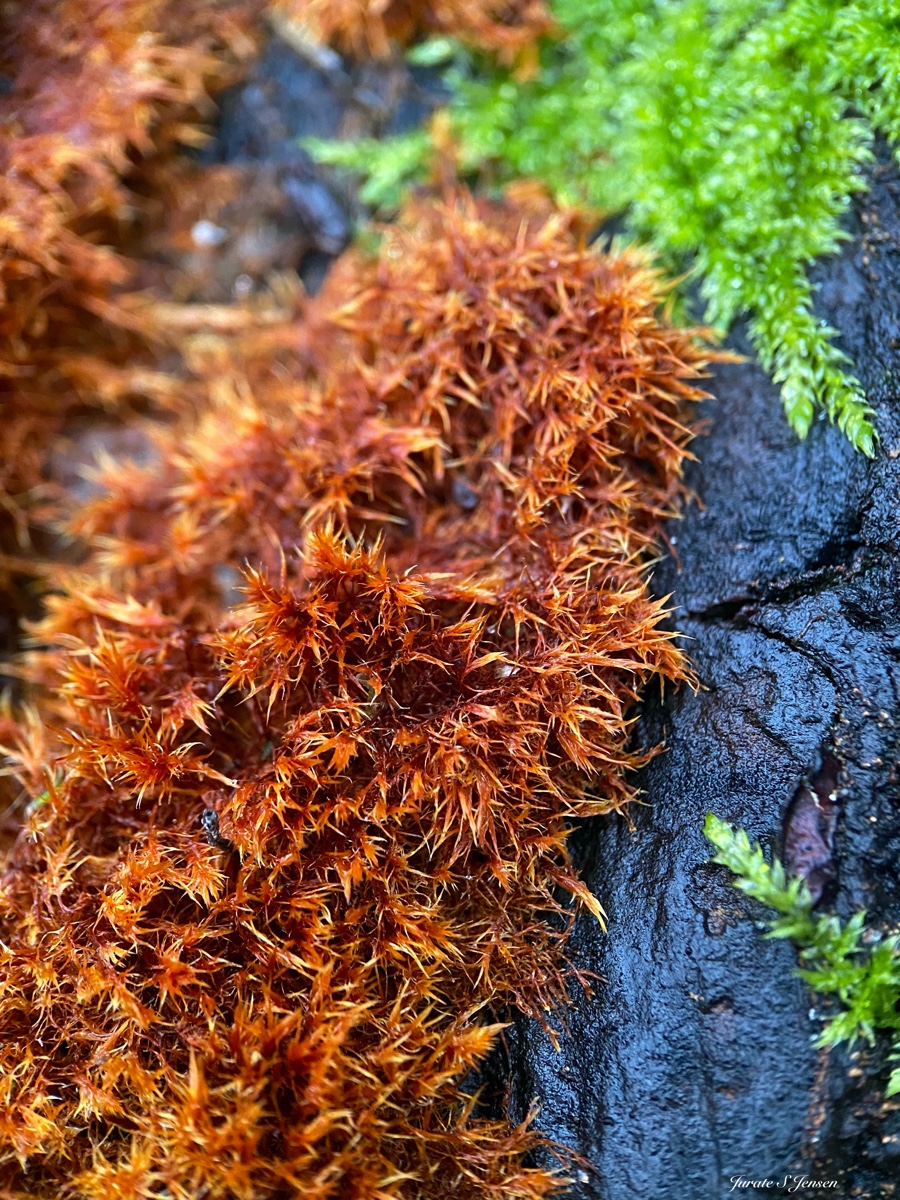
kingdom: Fungi
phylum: Basidiomycota
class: Agaricomycetes
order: Agaricales
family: Psathyrellaceae
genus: Ozonium
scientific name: Ozonium
